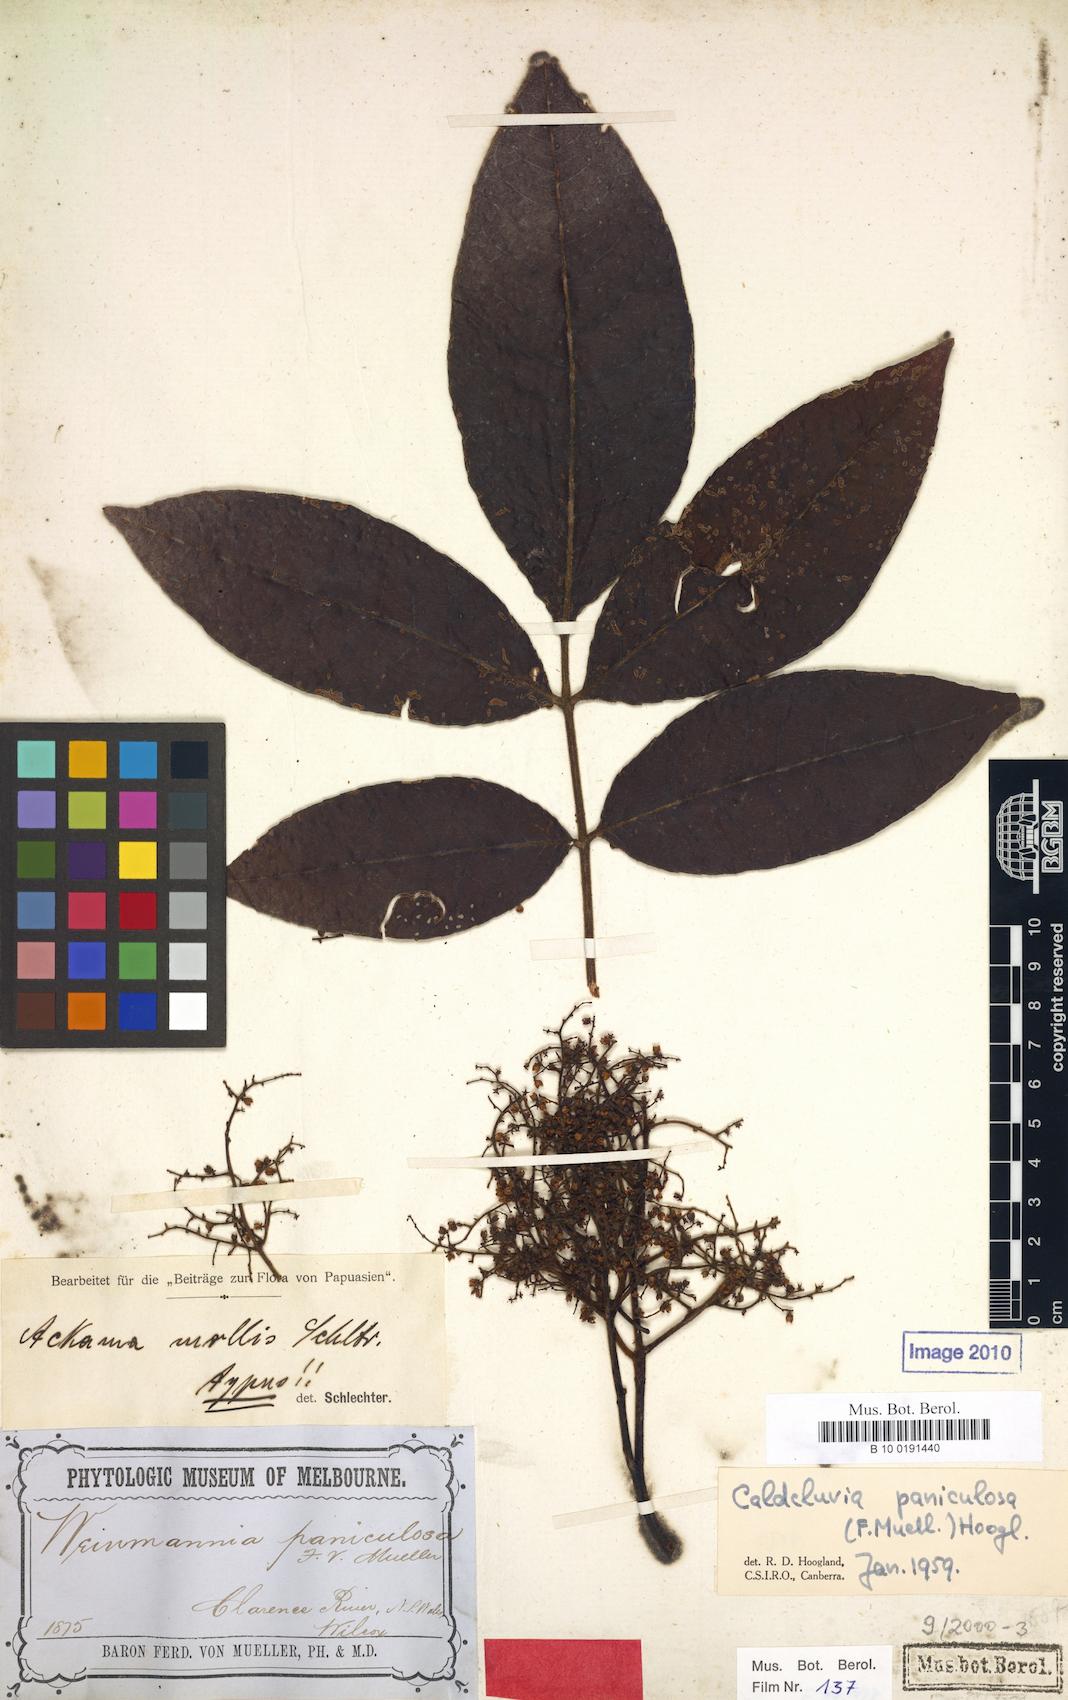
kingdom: Plantae
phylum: Tracheophyta
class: Magnoliopsida
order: Oxalidales
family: Cunoniaceae
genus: Ackama
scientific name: Ackama paniculosa
